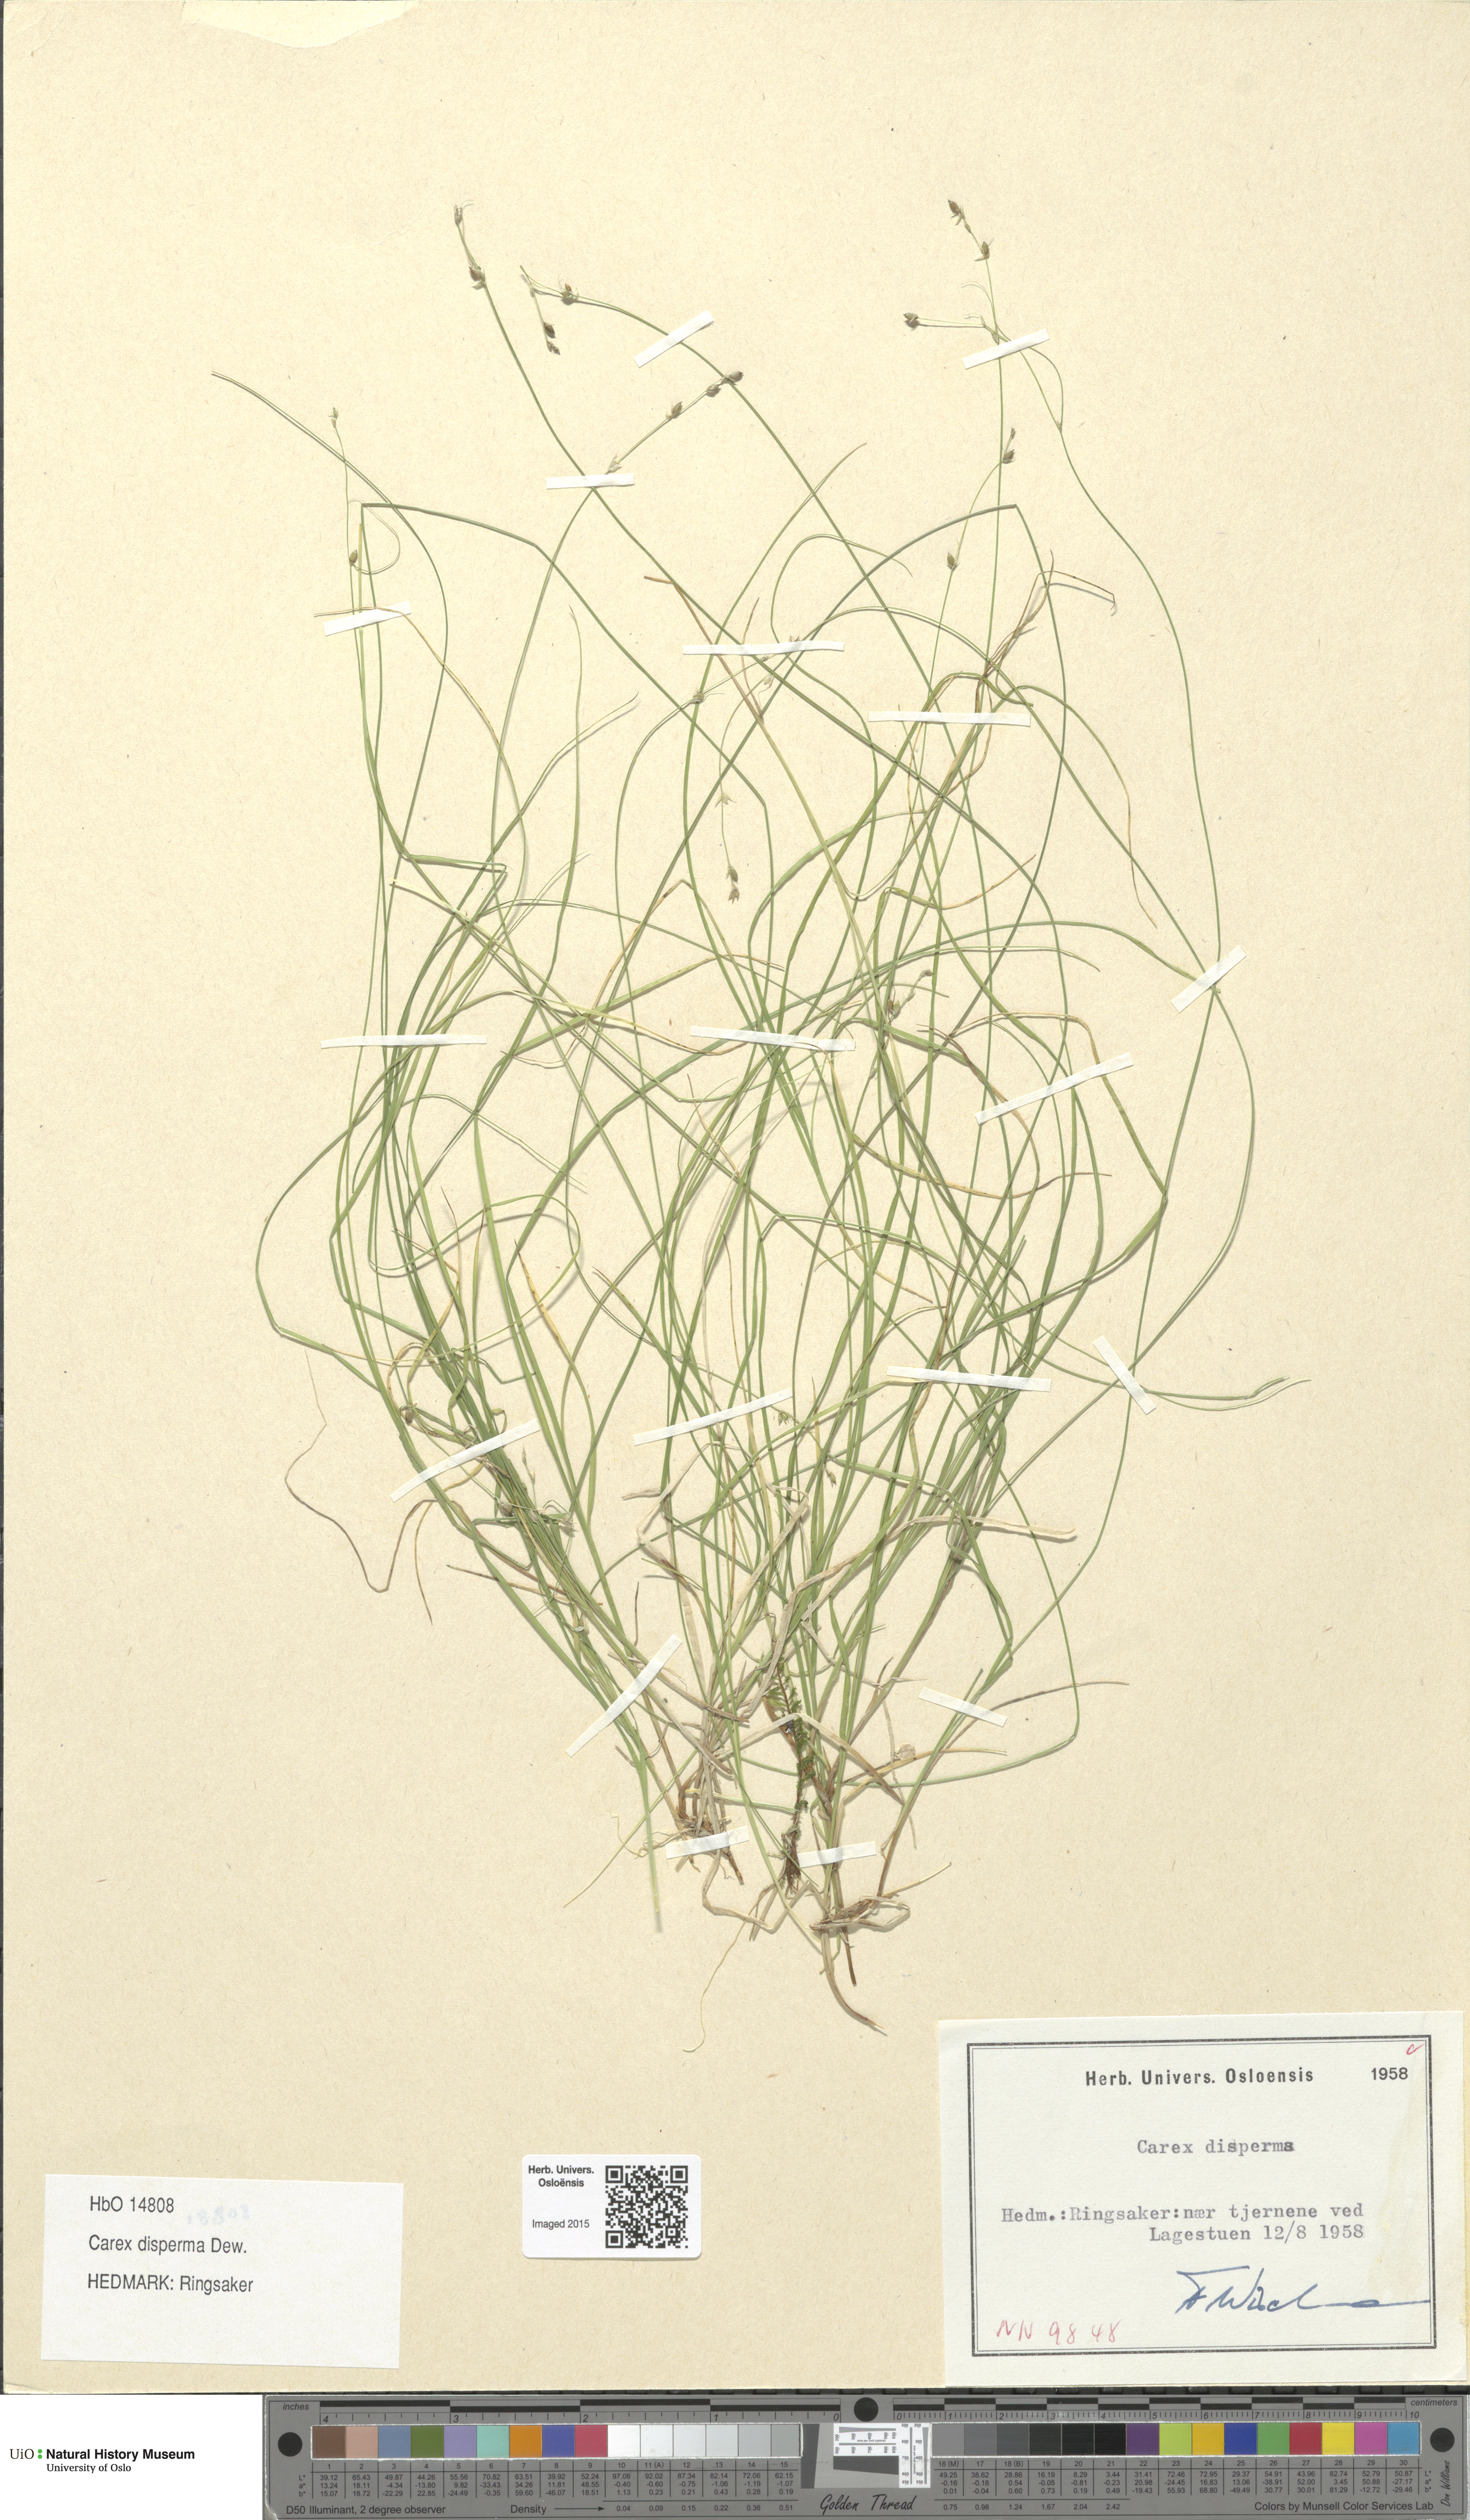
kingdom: Plantae
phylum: Tracheophyta
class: Liliopsida
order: Poales
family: Cyperaceae
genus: Carex
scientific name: Carex disperma
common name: Short-leaved sedge
